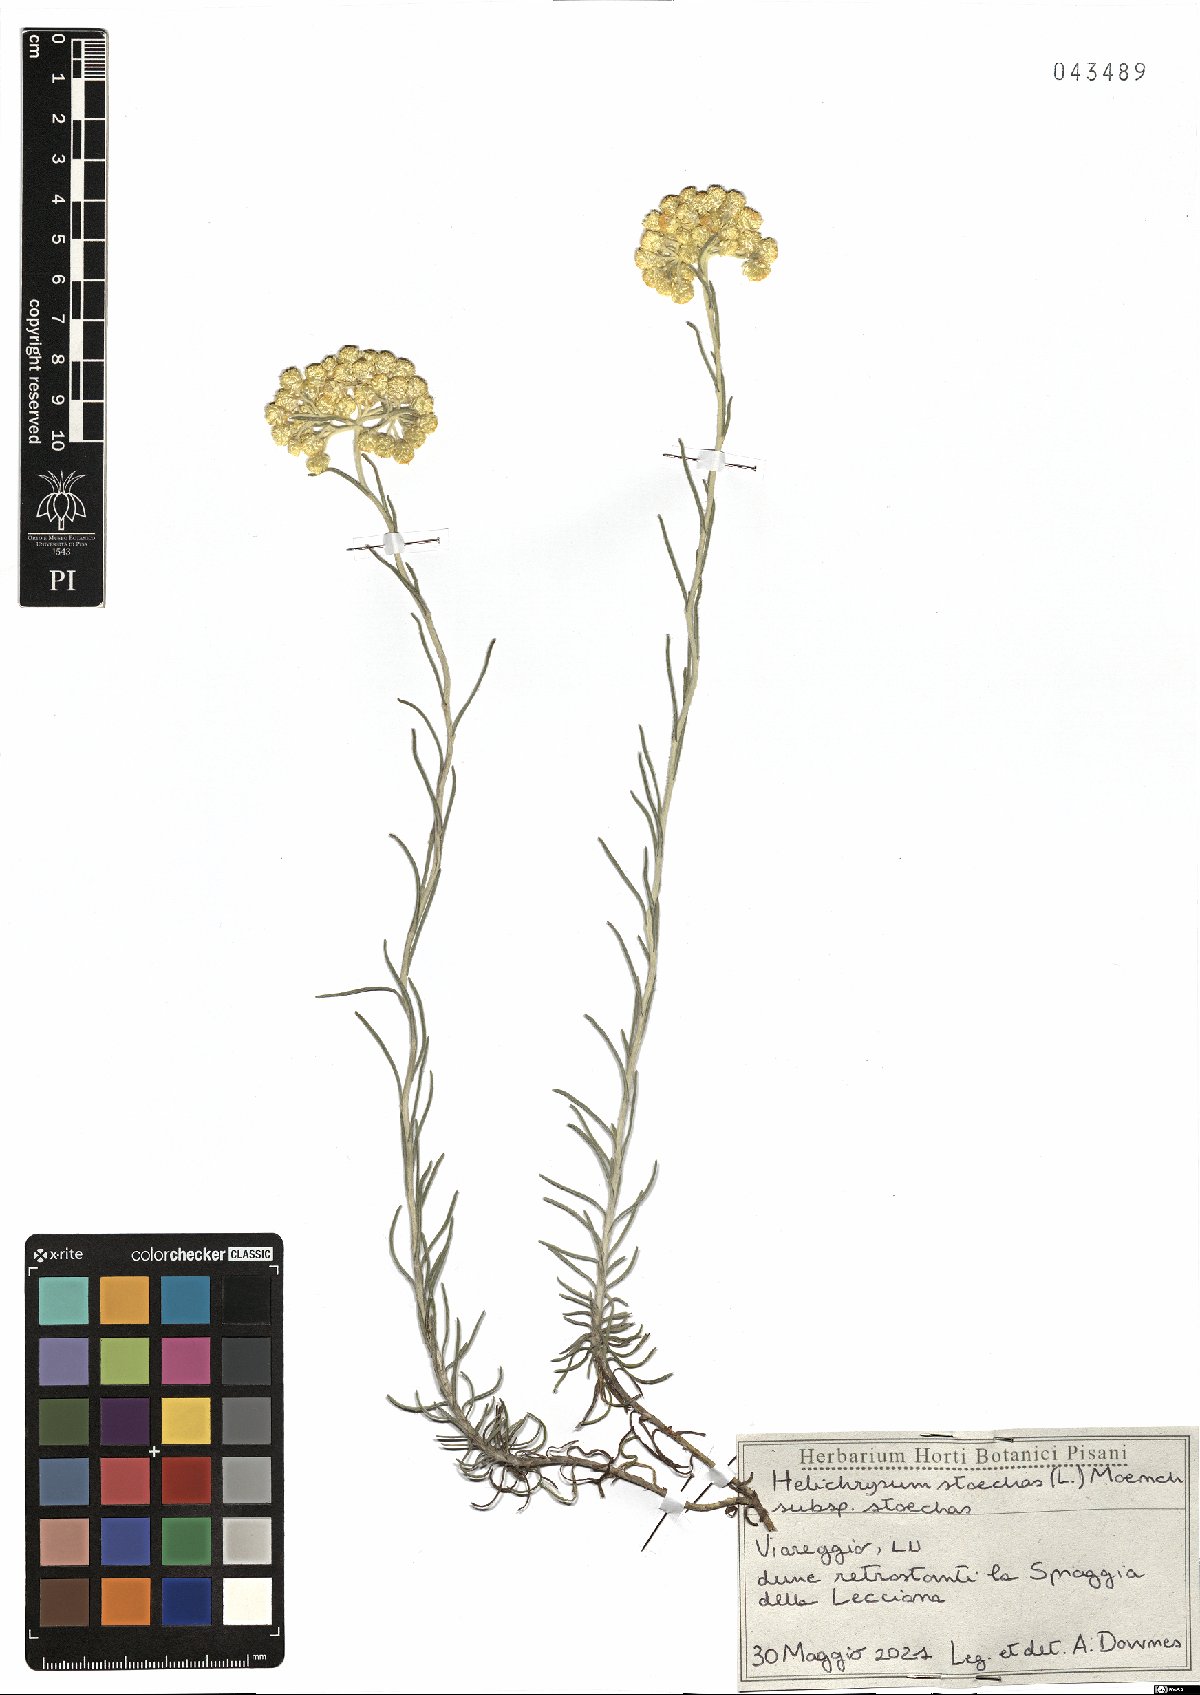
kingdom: Plantae
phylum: Tracheophyta
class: Magnoliopsida
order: Asterales
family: Asteraceae
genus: Helichrysum
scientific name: Helichrysum stoechas
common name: Goldilocks
